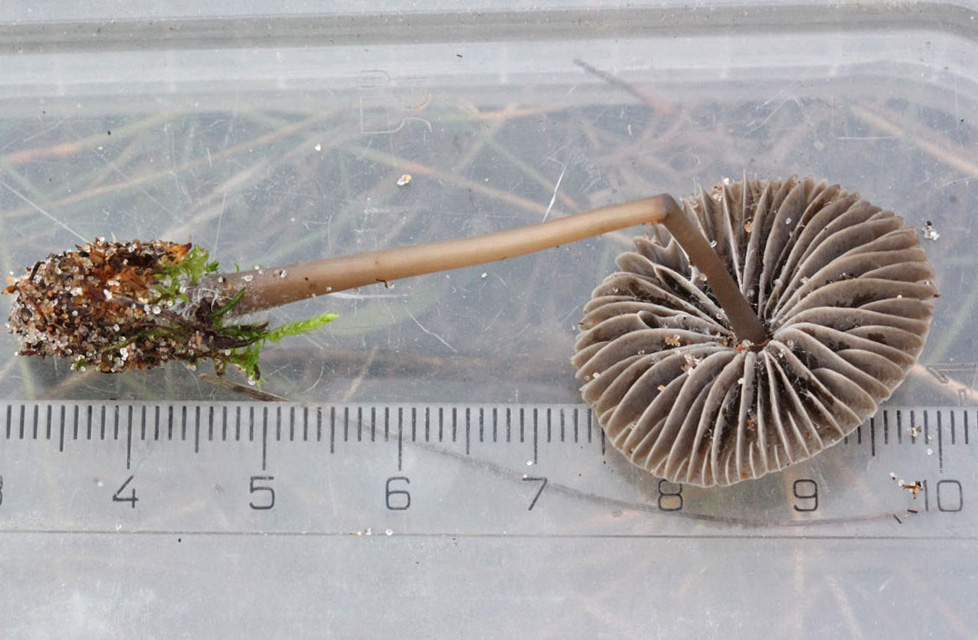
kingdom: Fungi
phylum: Basidiomycota
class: Agaricomycetes
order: Agaricales
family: Mycenaceae
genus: Mycena
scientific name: Mycena aetites
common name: plæne-huesvamp
